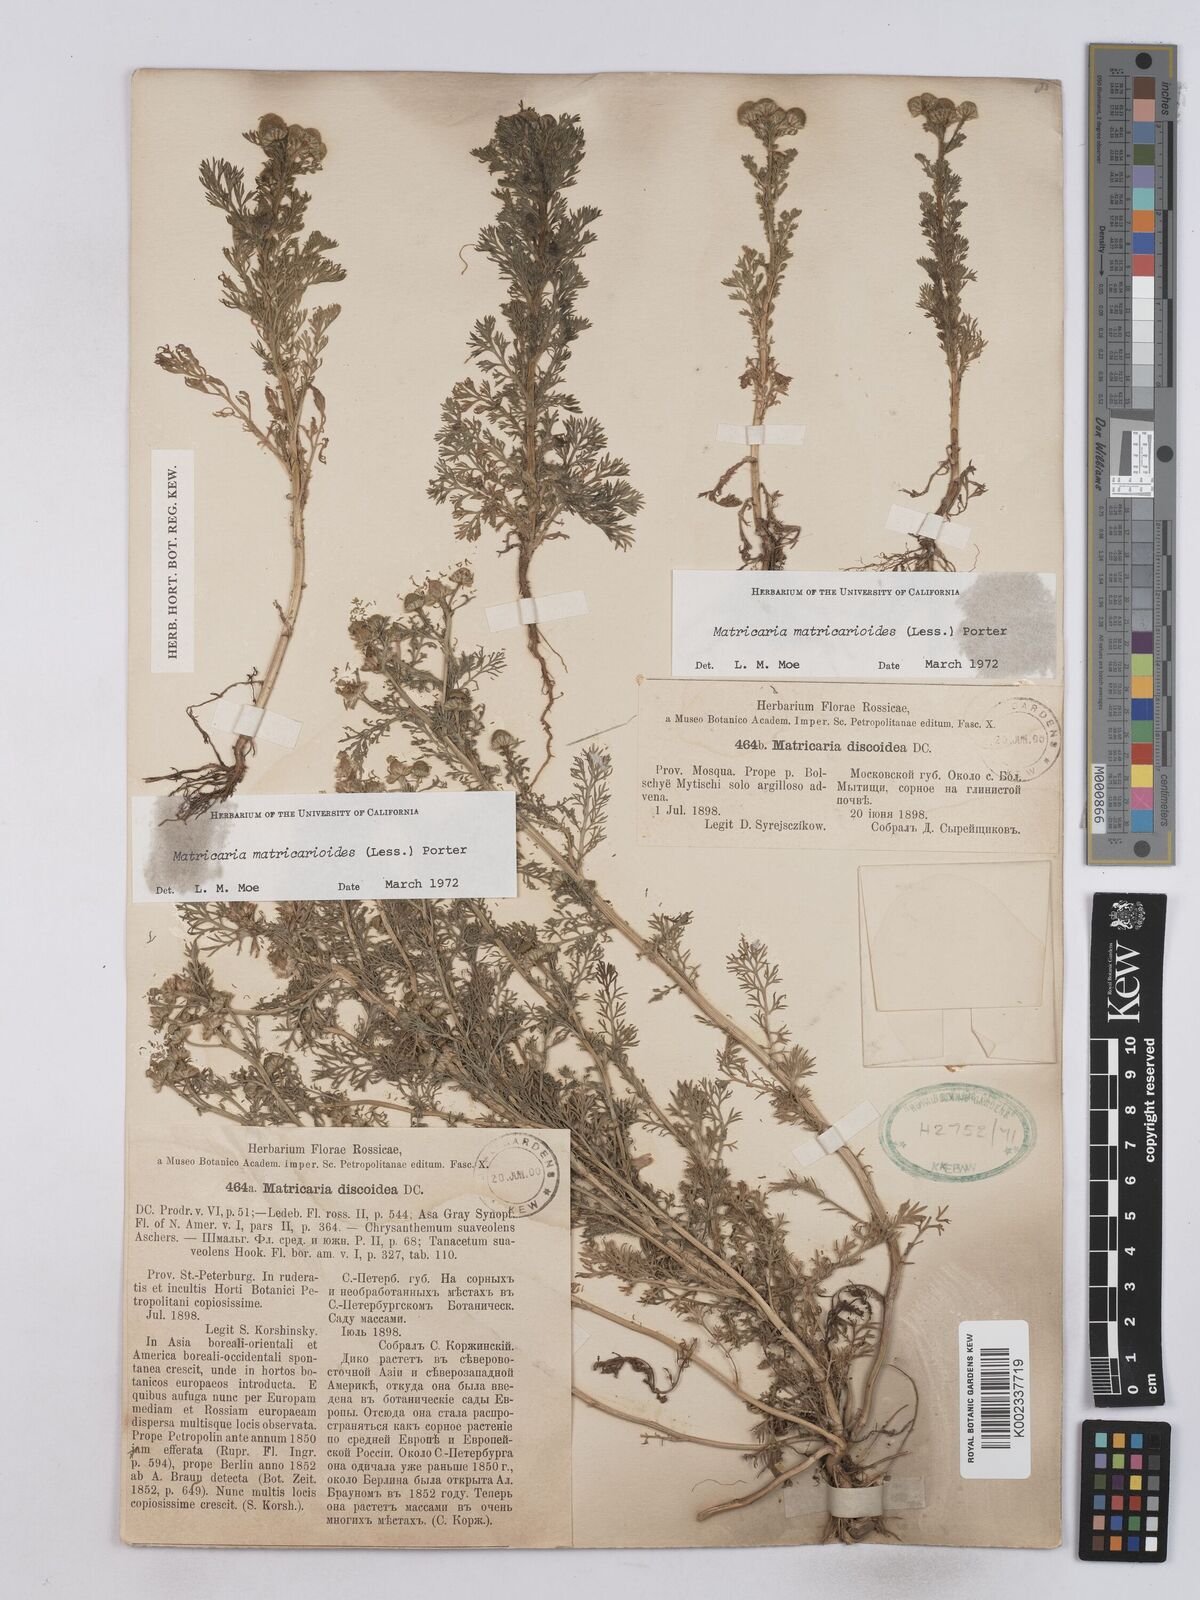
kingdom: Plantae
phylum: Tracheophyta
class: Magnoliopsida
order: Asterales
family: Asteraceae
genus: Matricaria
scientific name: Matricaria discoidea
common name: Disc mayweed
